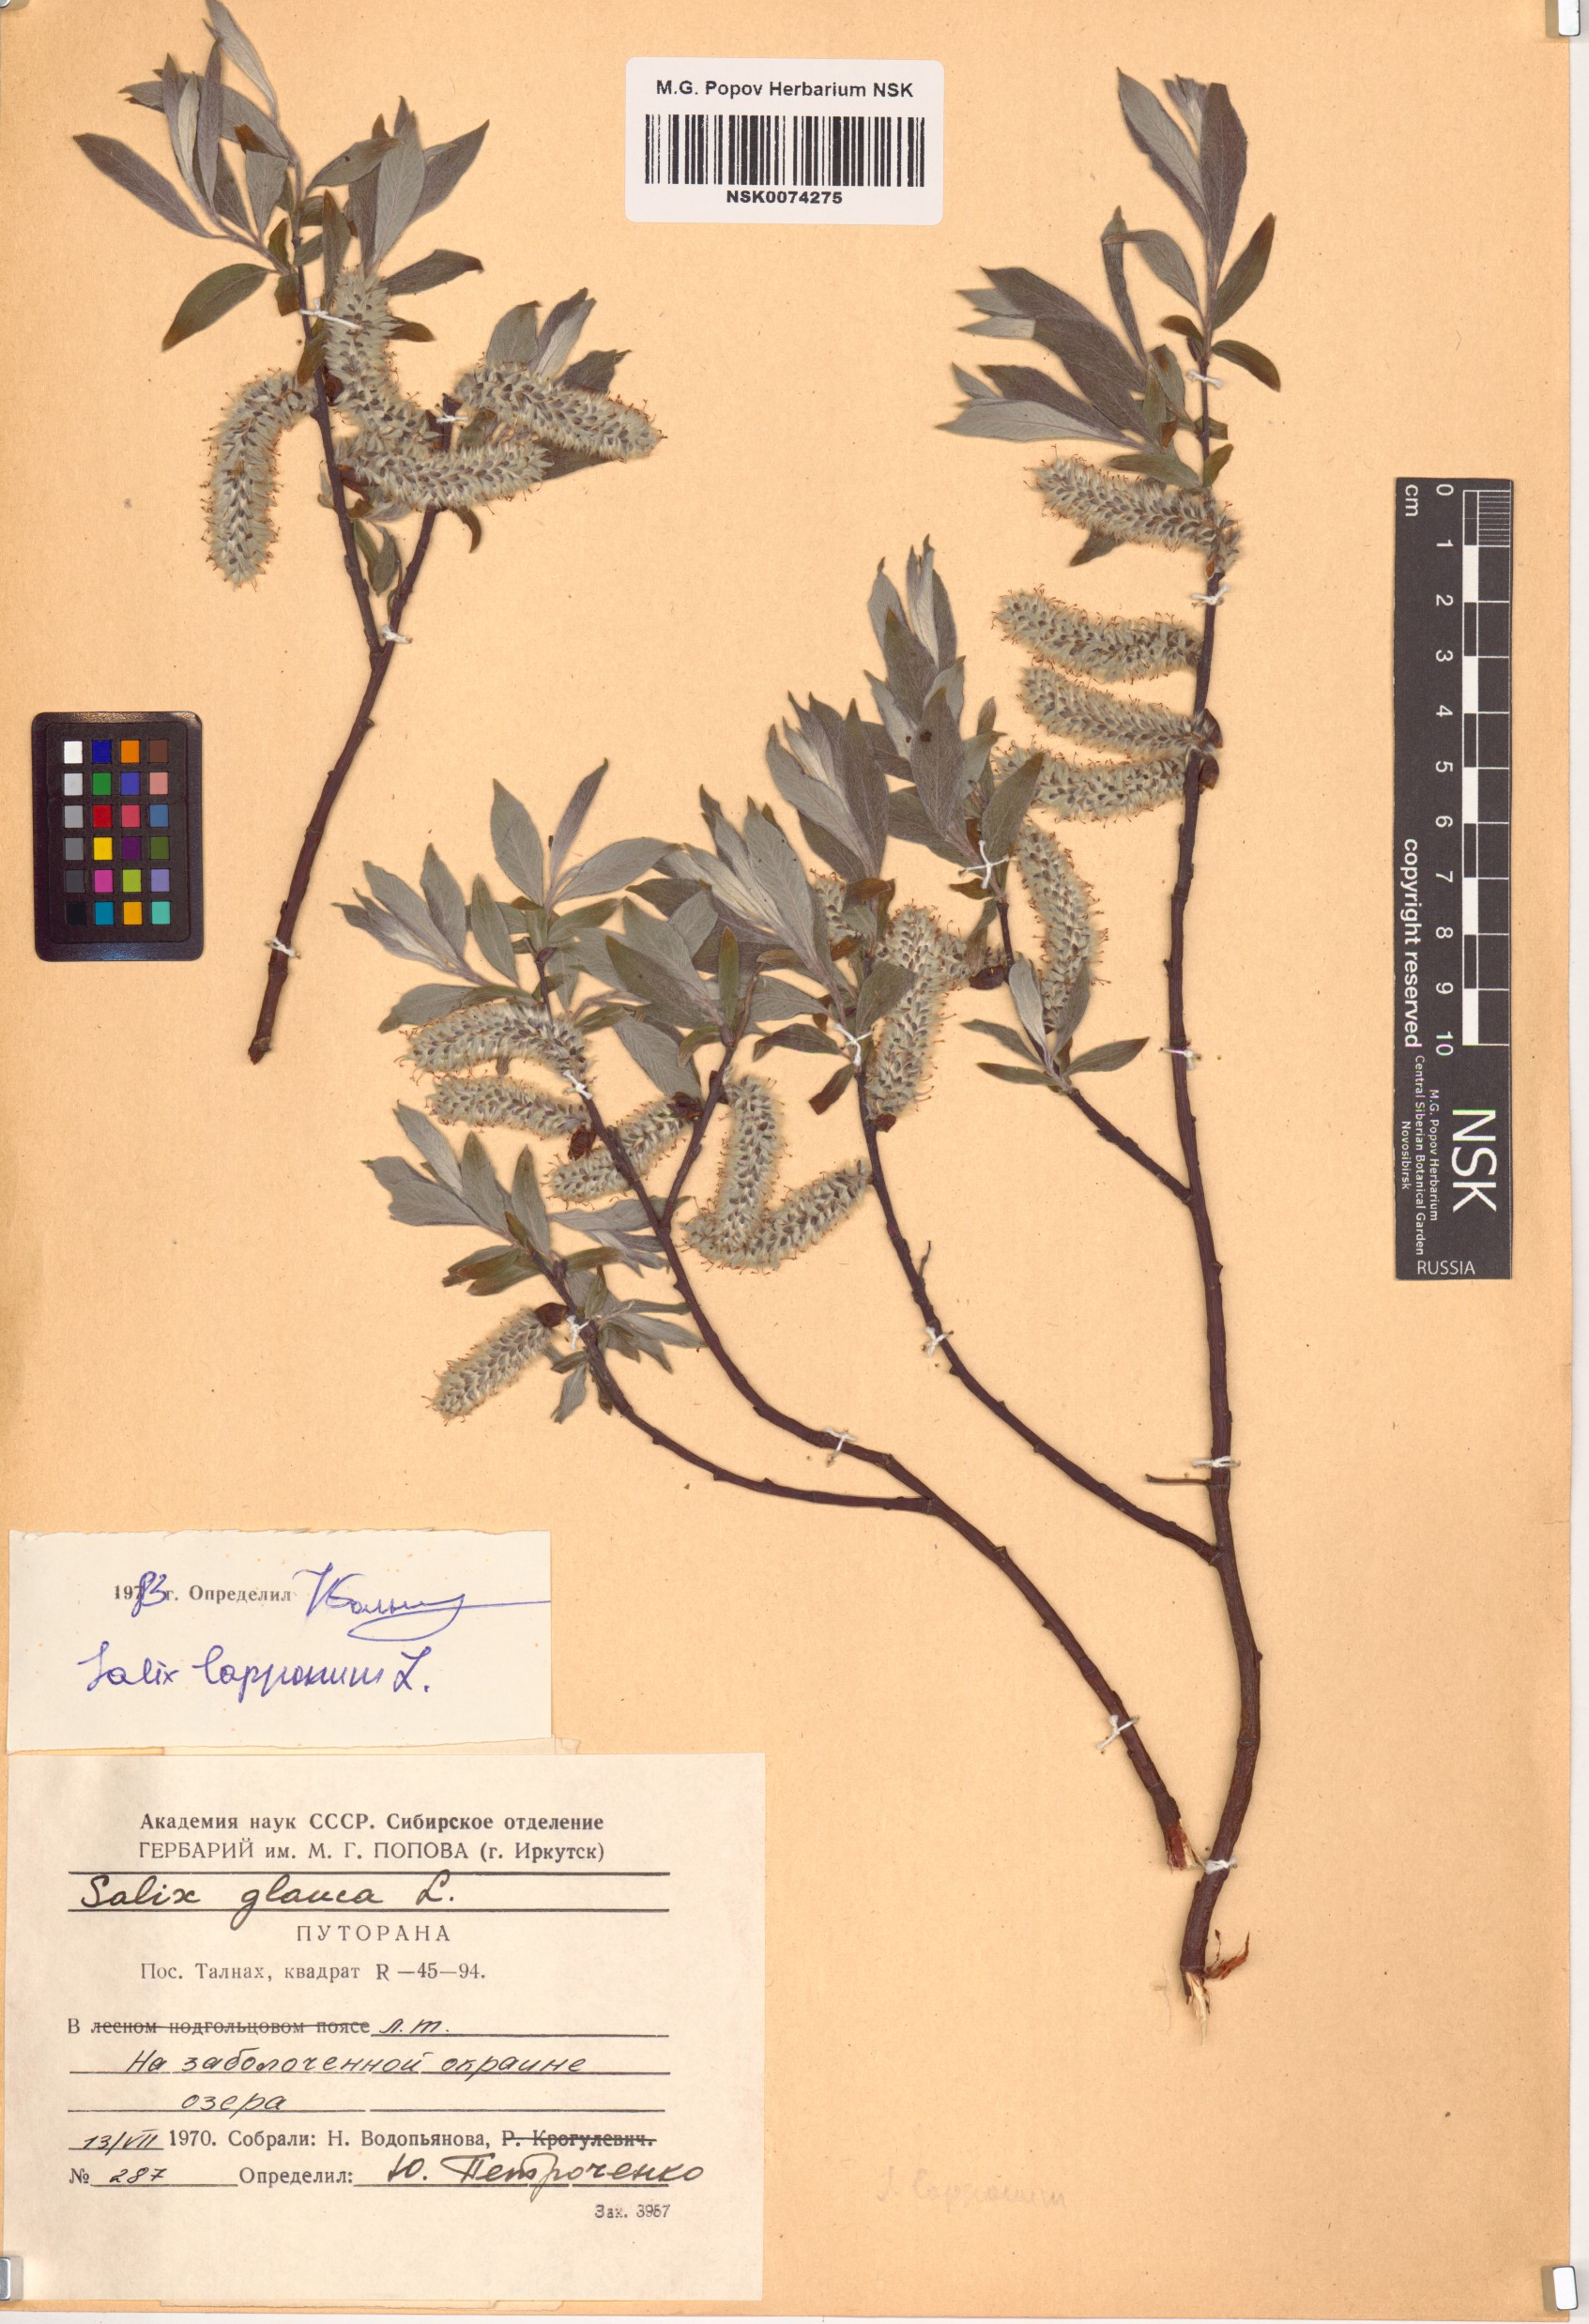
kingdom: Plantae
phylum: Tracheophyta
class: Magnoliopsida
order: Malpighiales
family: Salicaceae
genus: Salix
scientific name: Salix lapponum
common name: Downy willow
